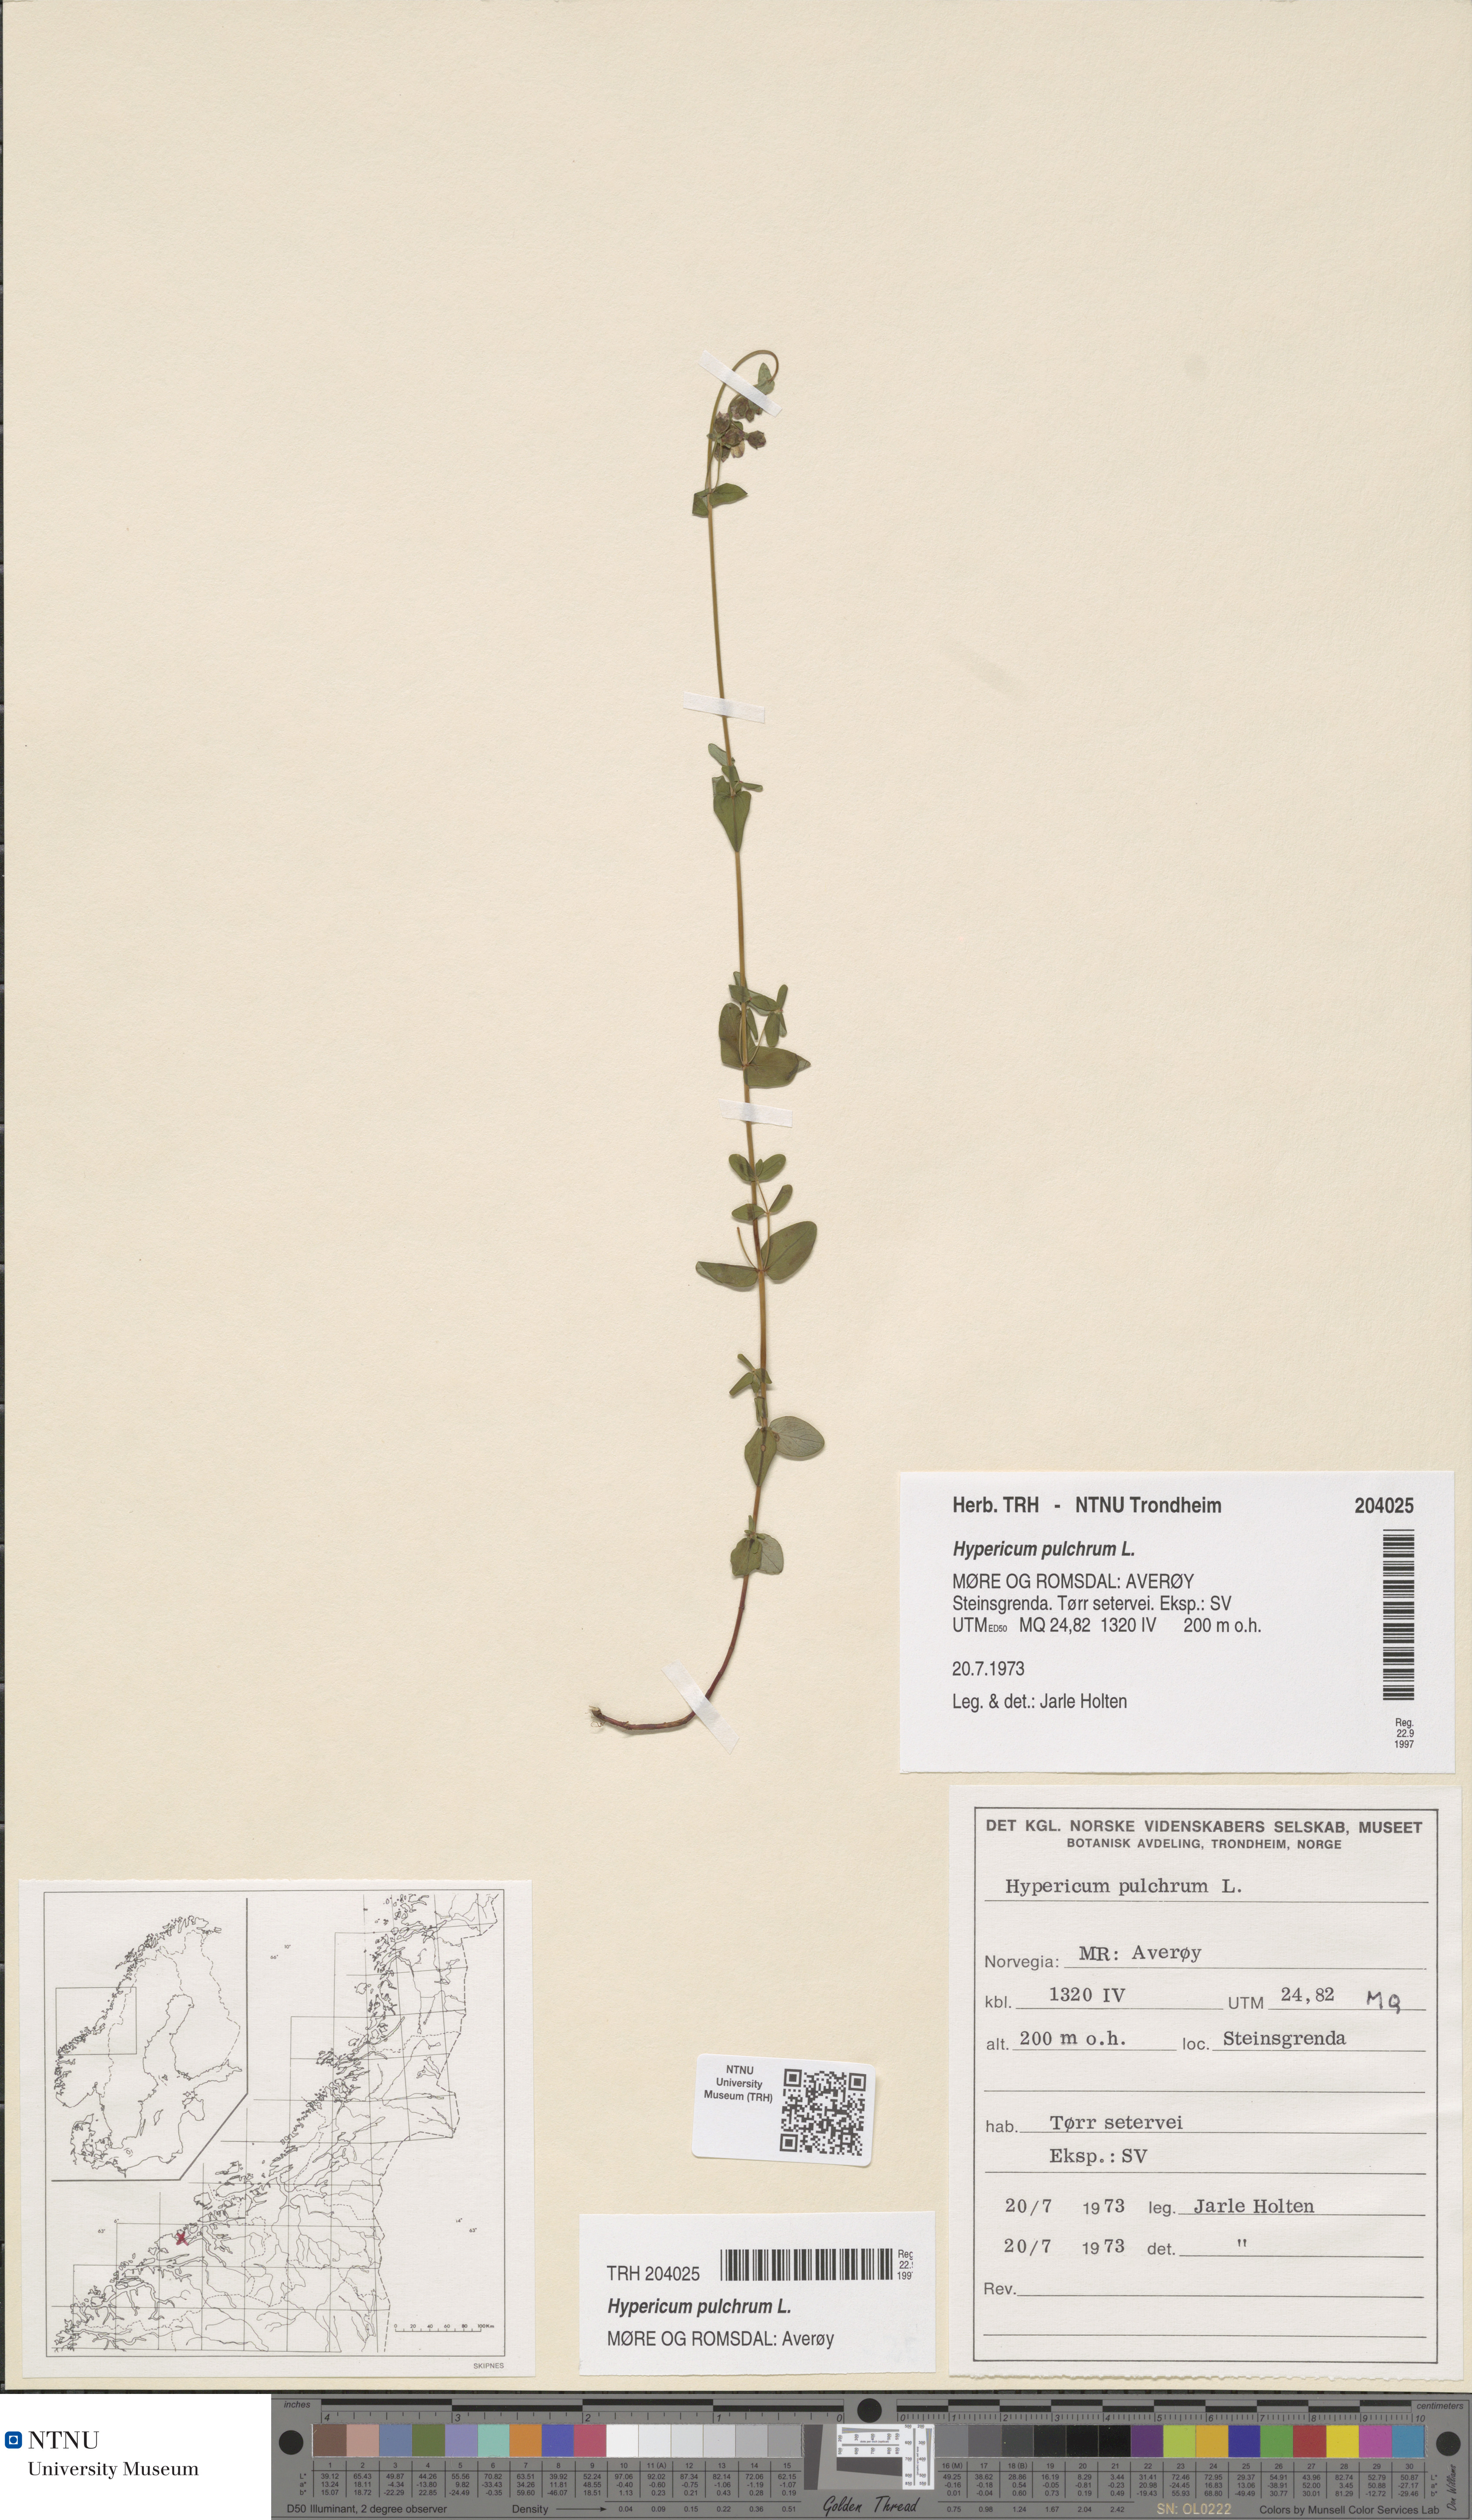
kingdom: Plantae
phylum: Tracheophyta
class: Magnoliopsida
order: Malpighiales
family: Hypericaceae
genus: Hypericum
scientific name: Hypericum pulchrum
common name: Slender st. john's-wort
